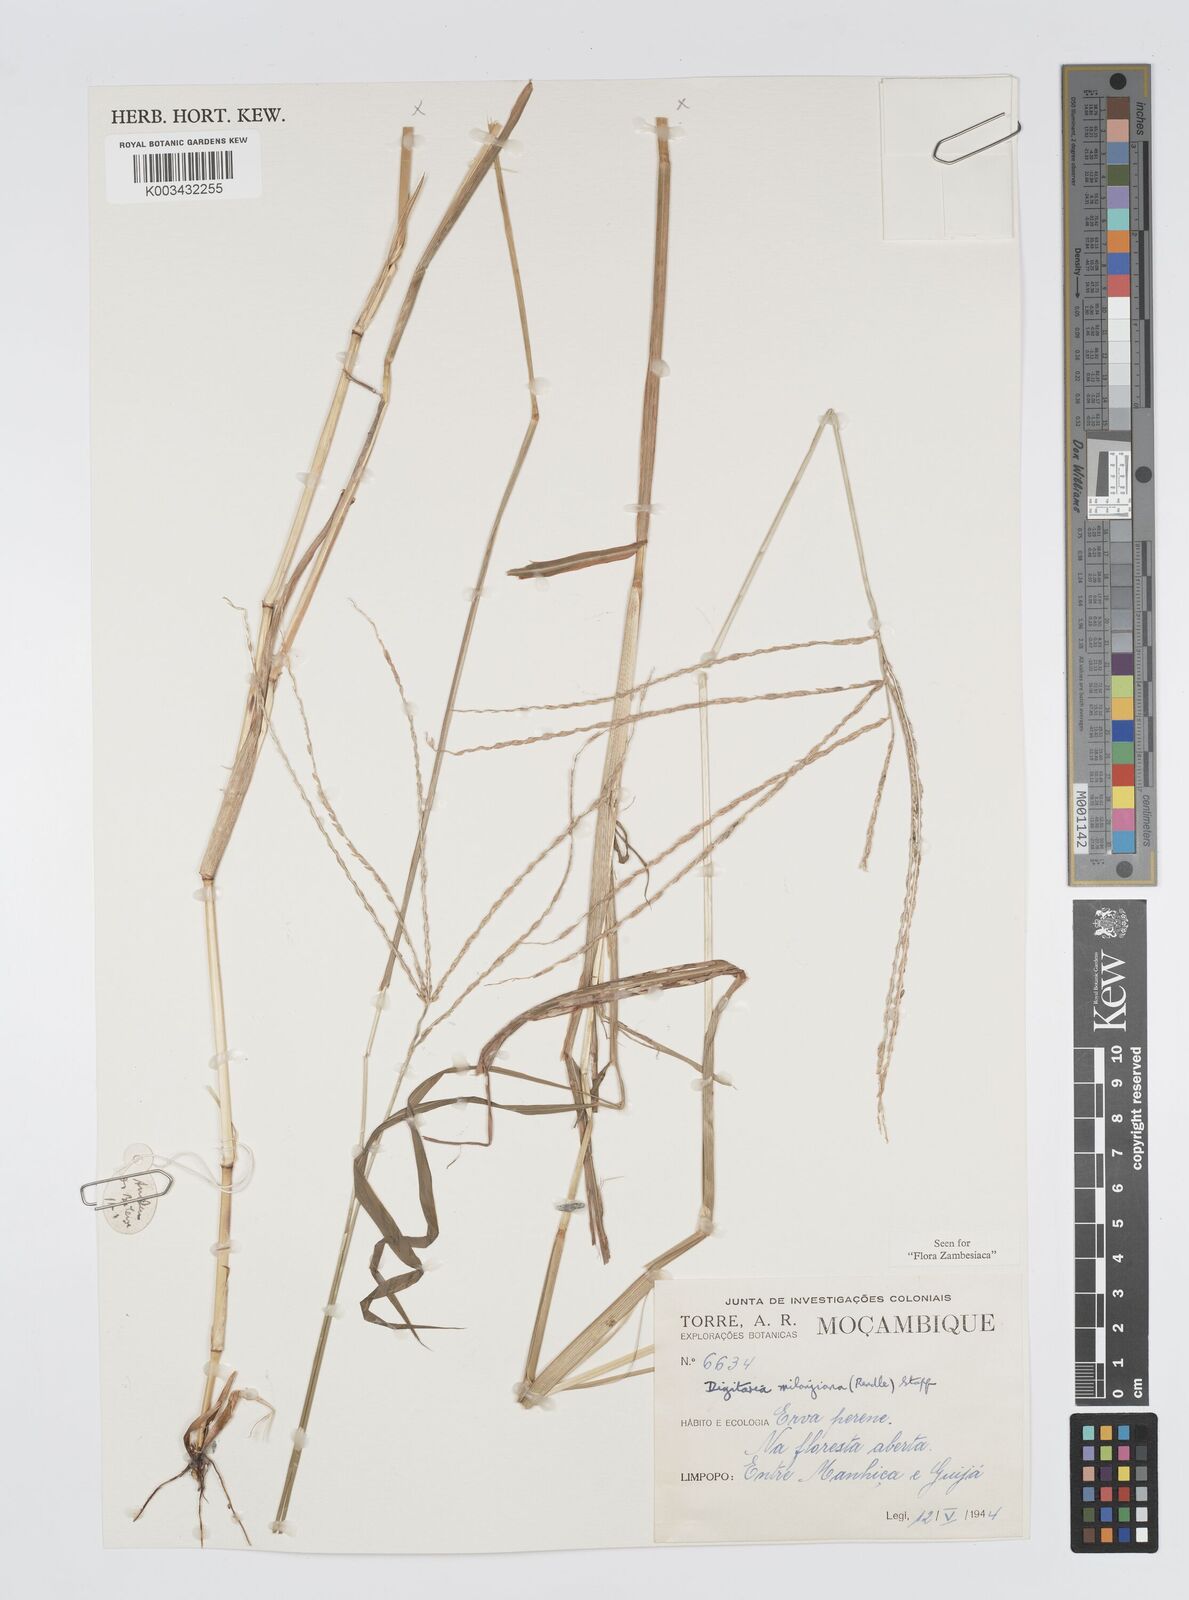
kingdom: Plantae
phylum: Tracheophyta
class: Liliopsida
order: Poales
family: Poaceae
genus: Digitaria
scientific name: Digitaria milanjiana
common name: Madagascar crabgrass
